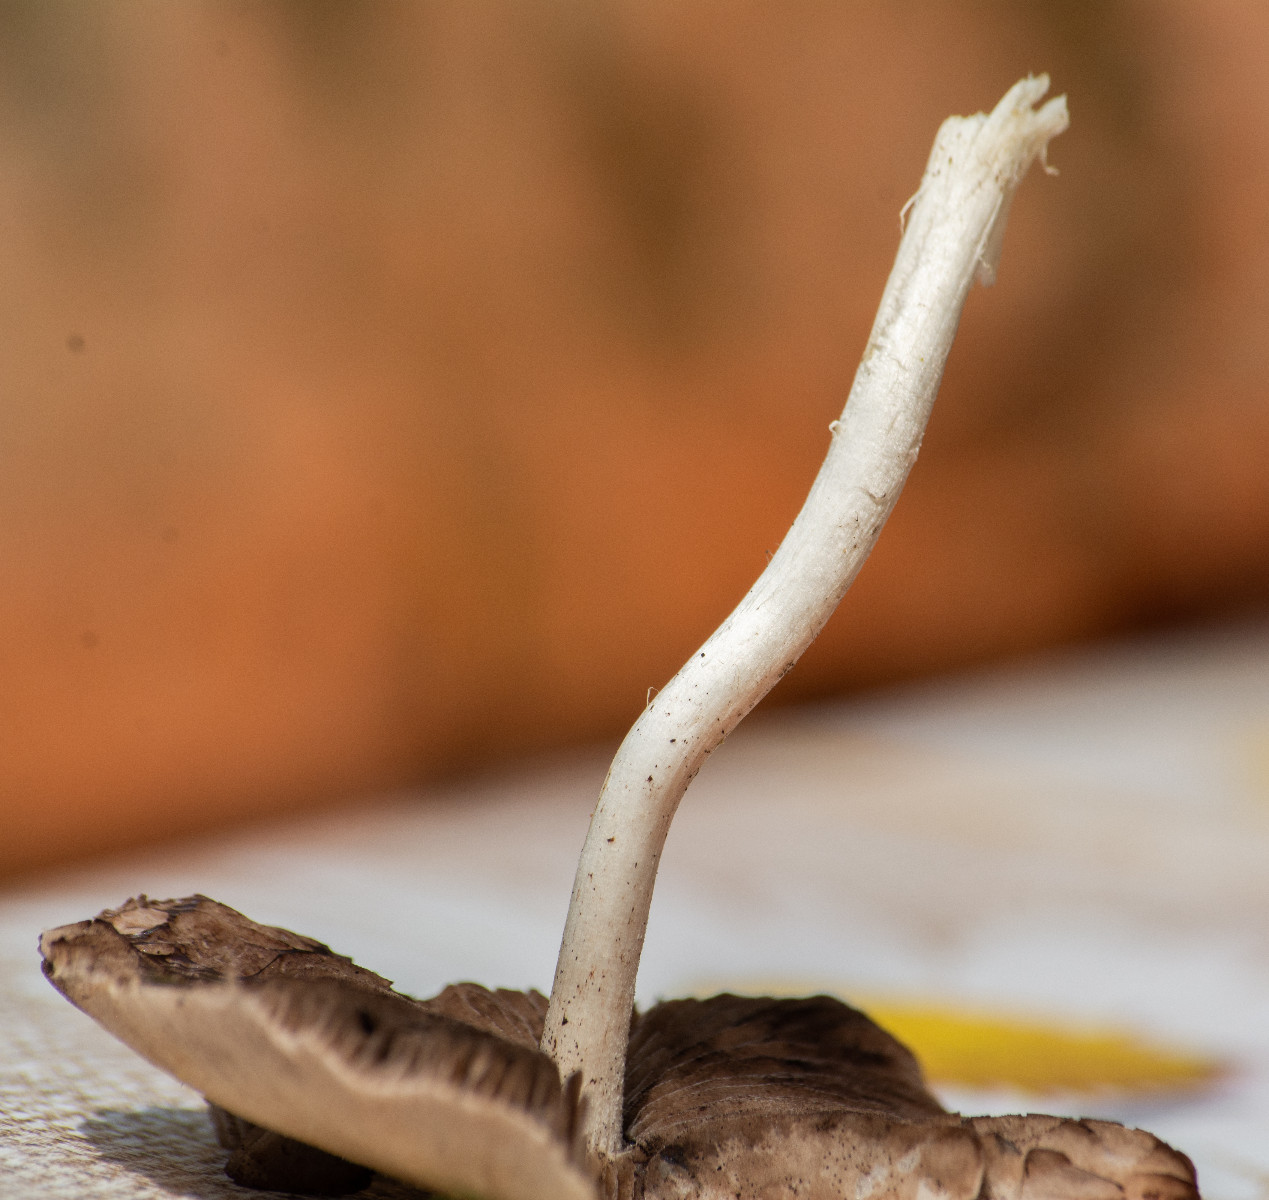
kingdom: Fungi
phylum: Basidiomycota
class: Agaricomycetes
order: Agaricales
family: Psathyrellaceae
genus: Candolleomyces
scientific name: Candolleomyces candolleanus
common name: Candolles mørkhat
